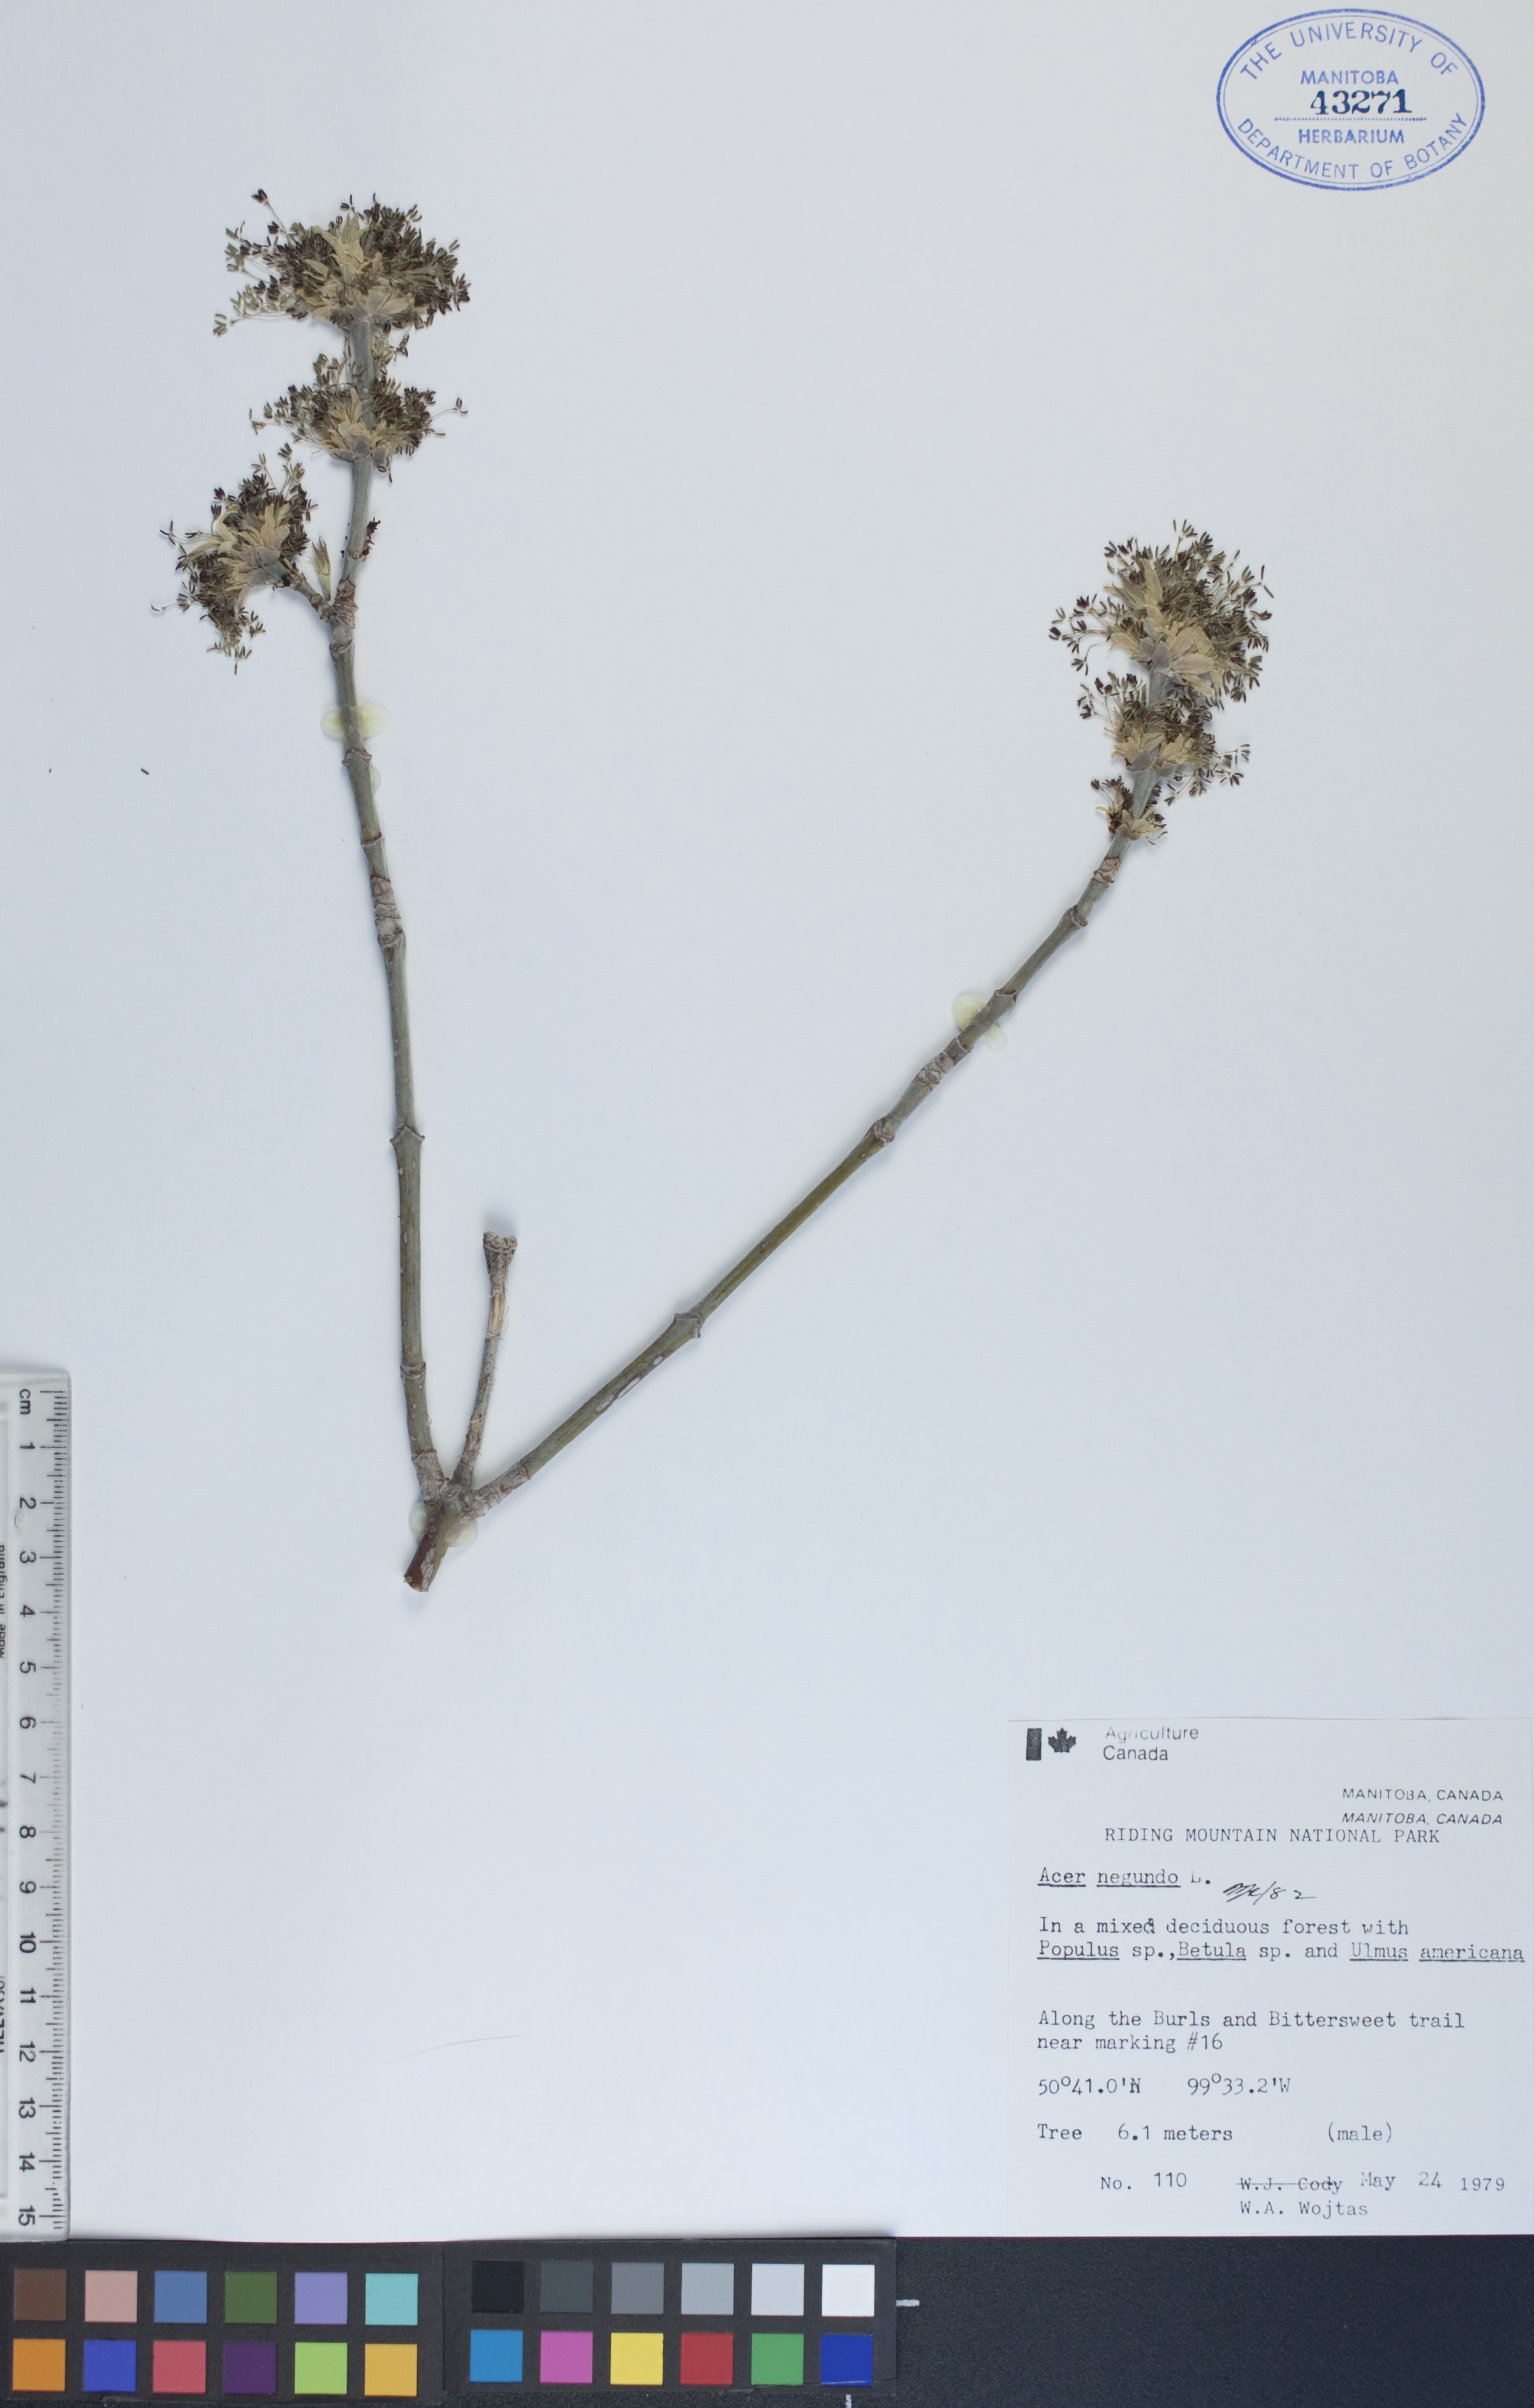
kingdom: Plantae
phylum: Tracheophyta
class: Magnoliopsida
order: Sapindales
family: Sapindaceae
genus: Acer
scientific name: Acer negundo
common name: Ashleaf maple
